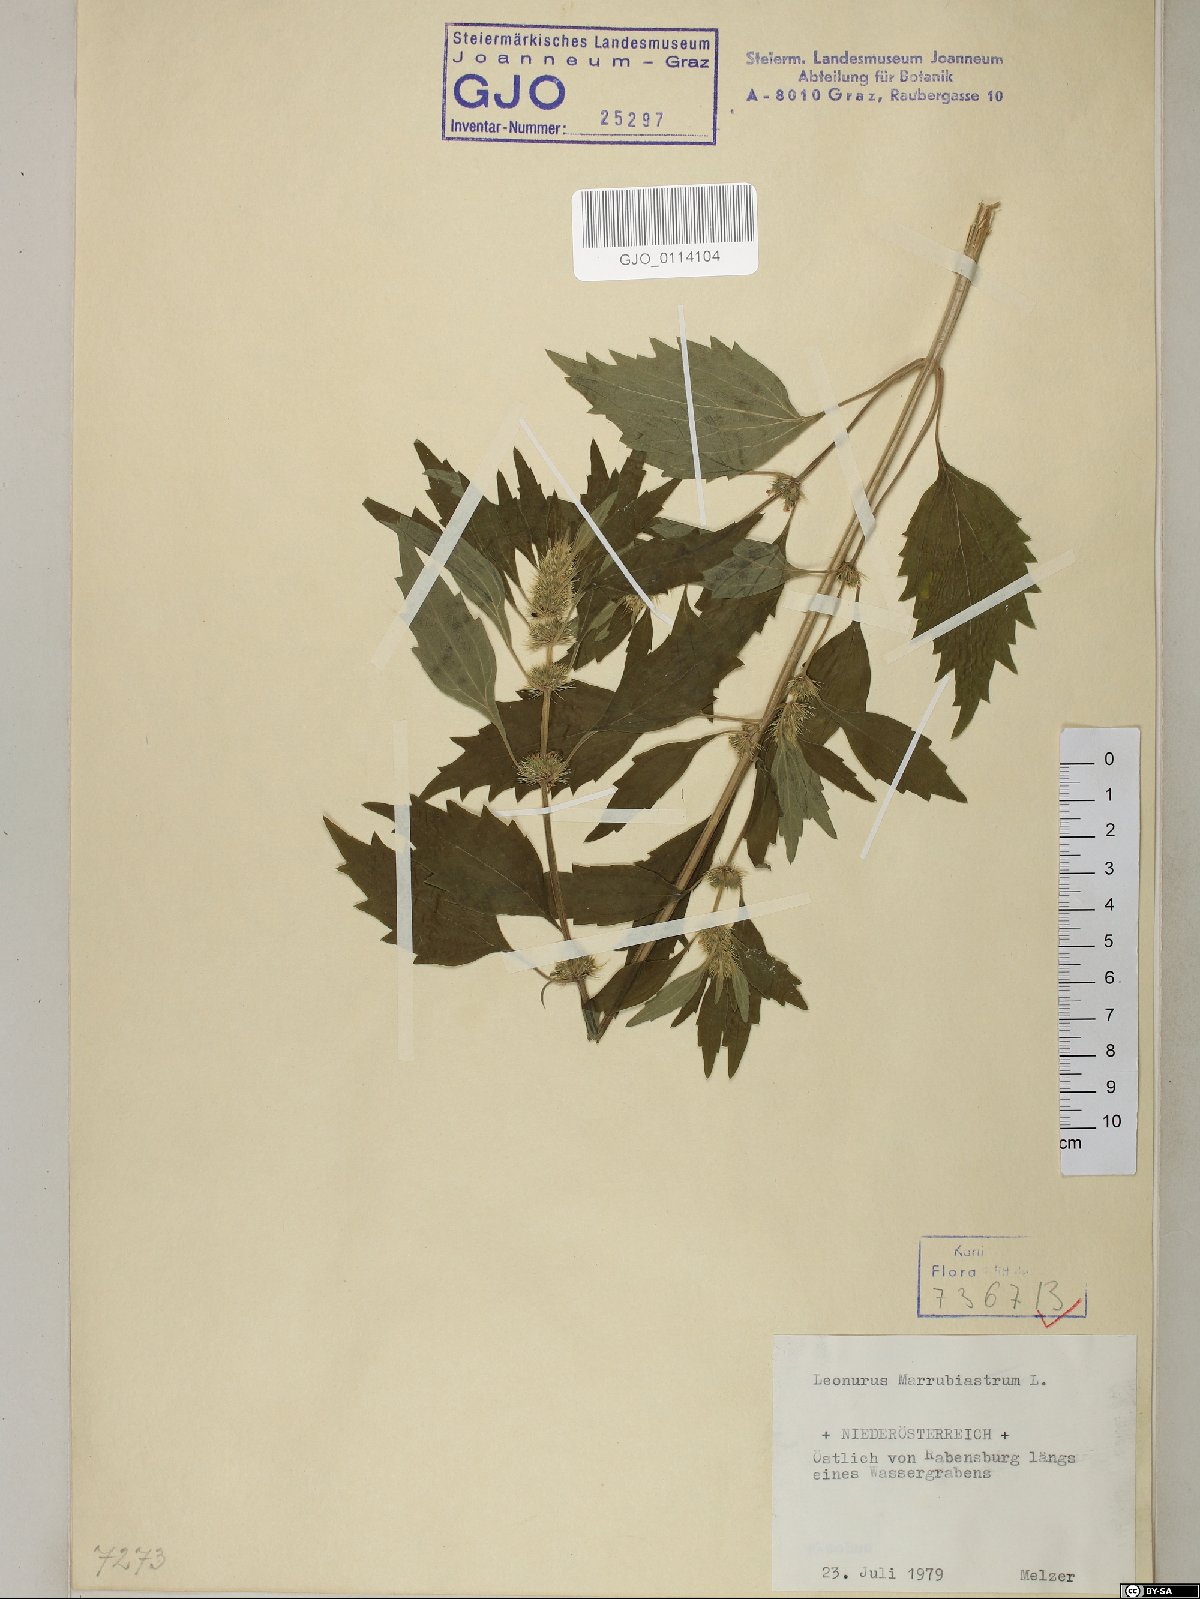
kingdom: Plantae
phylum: Tracheophyta
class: Magnoliopsida
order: Lamiales
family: Lamiaceae
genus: Chaiturus
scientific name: Chaiturus marrubiastrum
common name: Lion's tail
